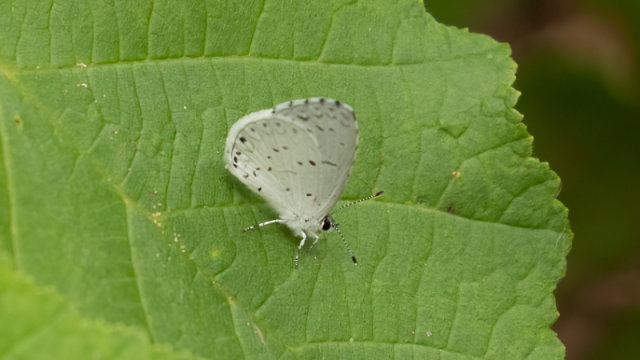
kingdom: Animalia
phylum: Arthropoda
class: Insecta
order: Lepidoptera
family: Lycaenidae
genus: Cyaniris
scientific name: Cyaniris neglecta
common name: Summer Azure
